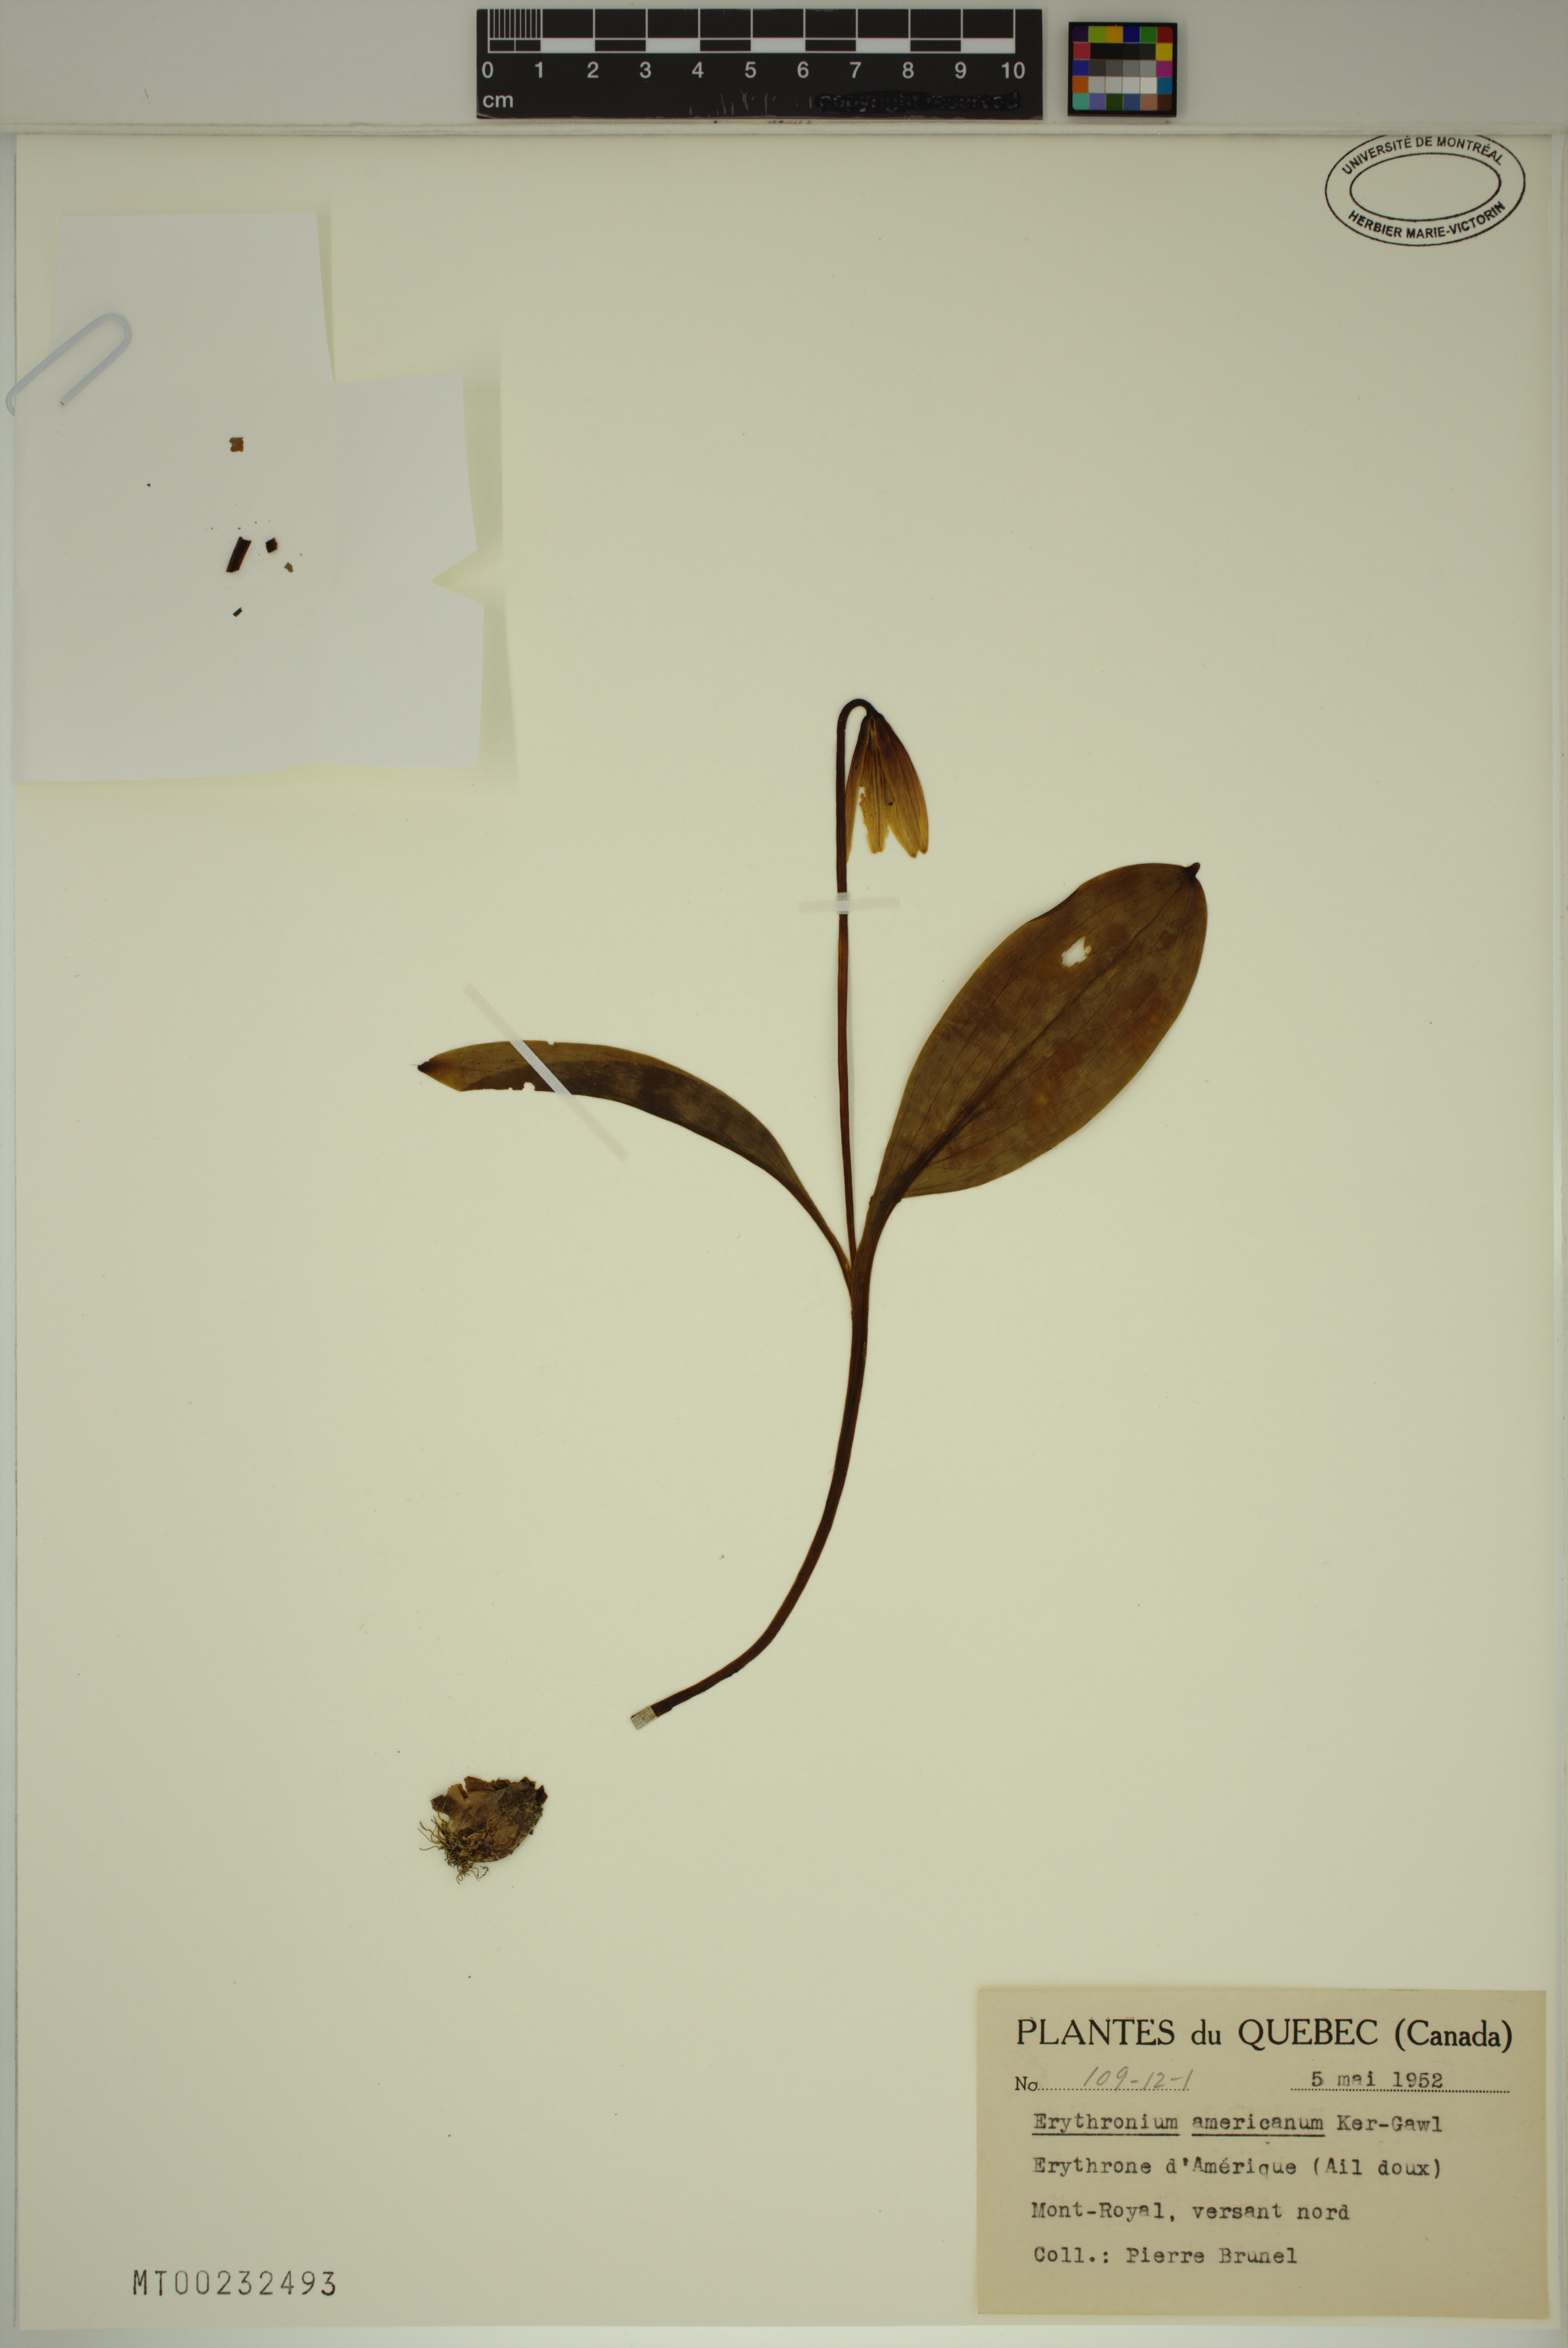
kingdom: Plantae
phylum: Tracheophyta
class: Liliopsida
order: Liliales
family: Liliaceae
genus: Erythronium
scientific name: Erythronium americanum
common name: Yellow adder's-tongue
